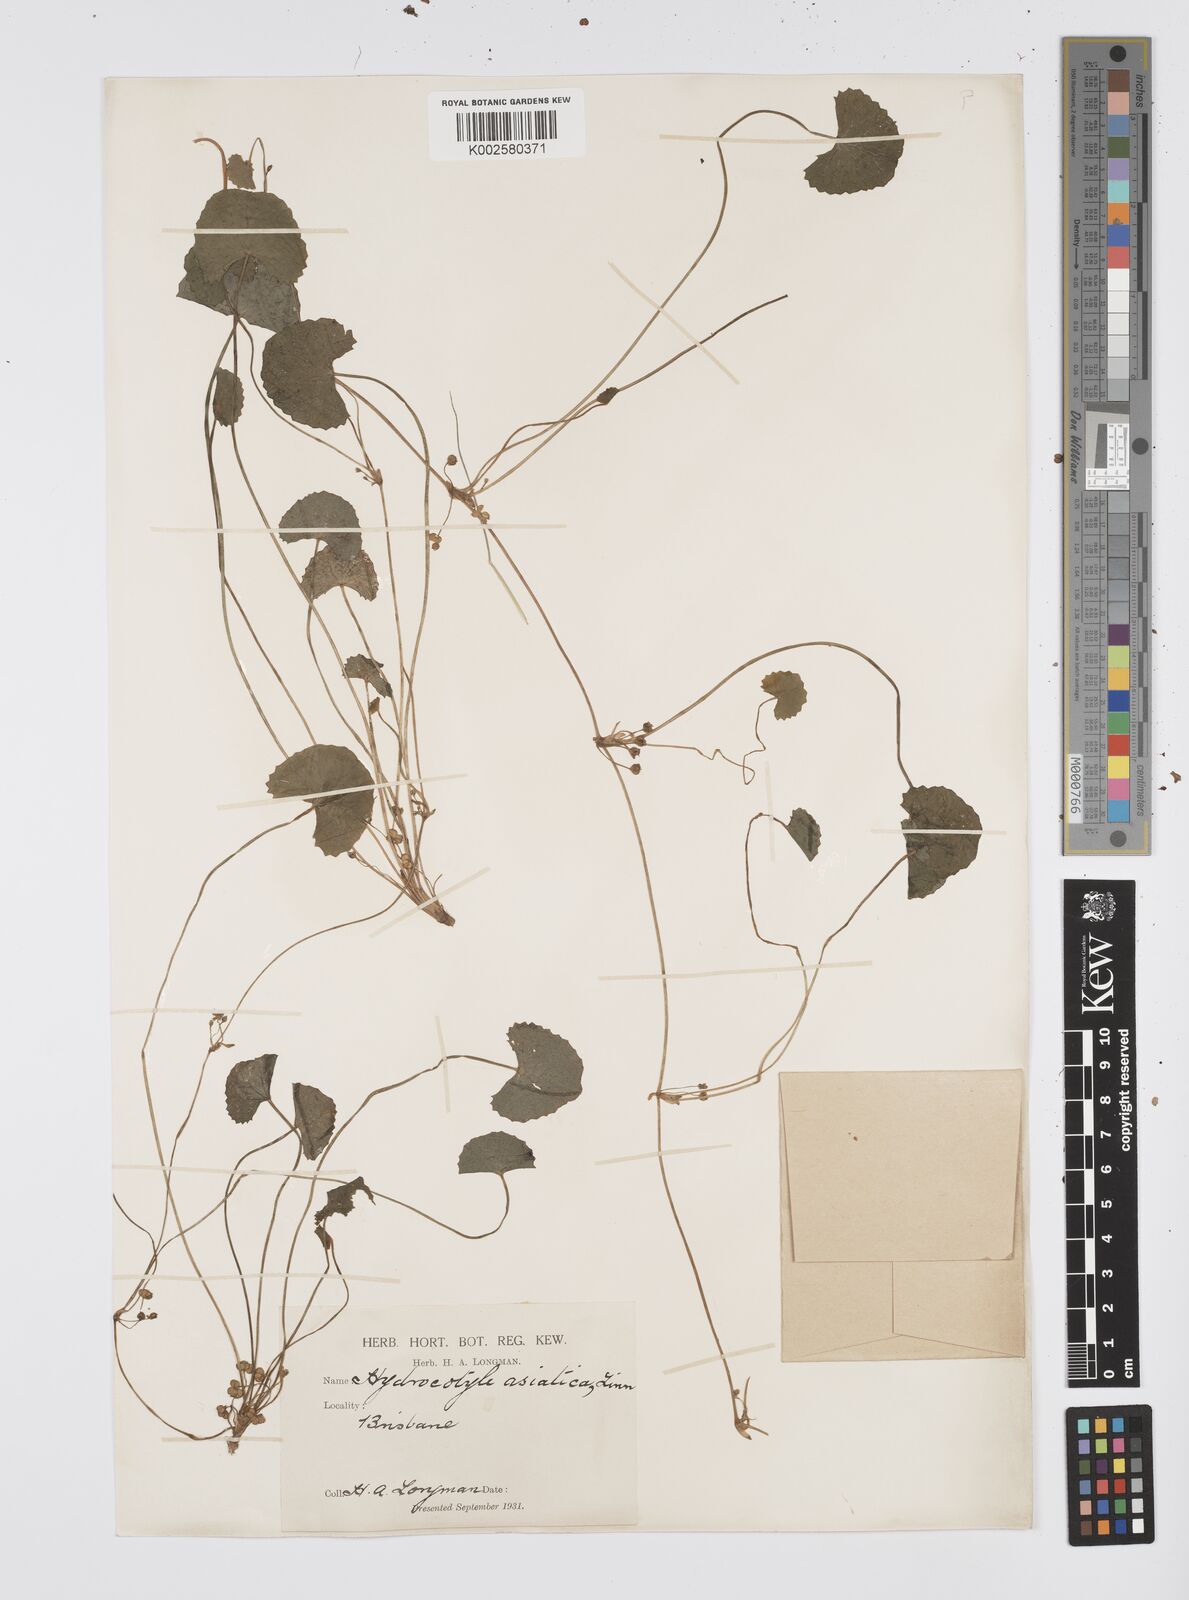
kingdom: Plantae
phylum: Tracheophyta
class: Magnoliopsida
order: Apiales
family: Apiaceae
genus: Centella
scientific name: Centella asiatica
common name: Spadeleaf
